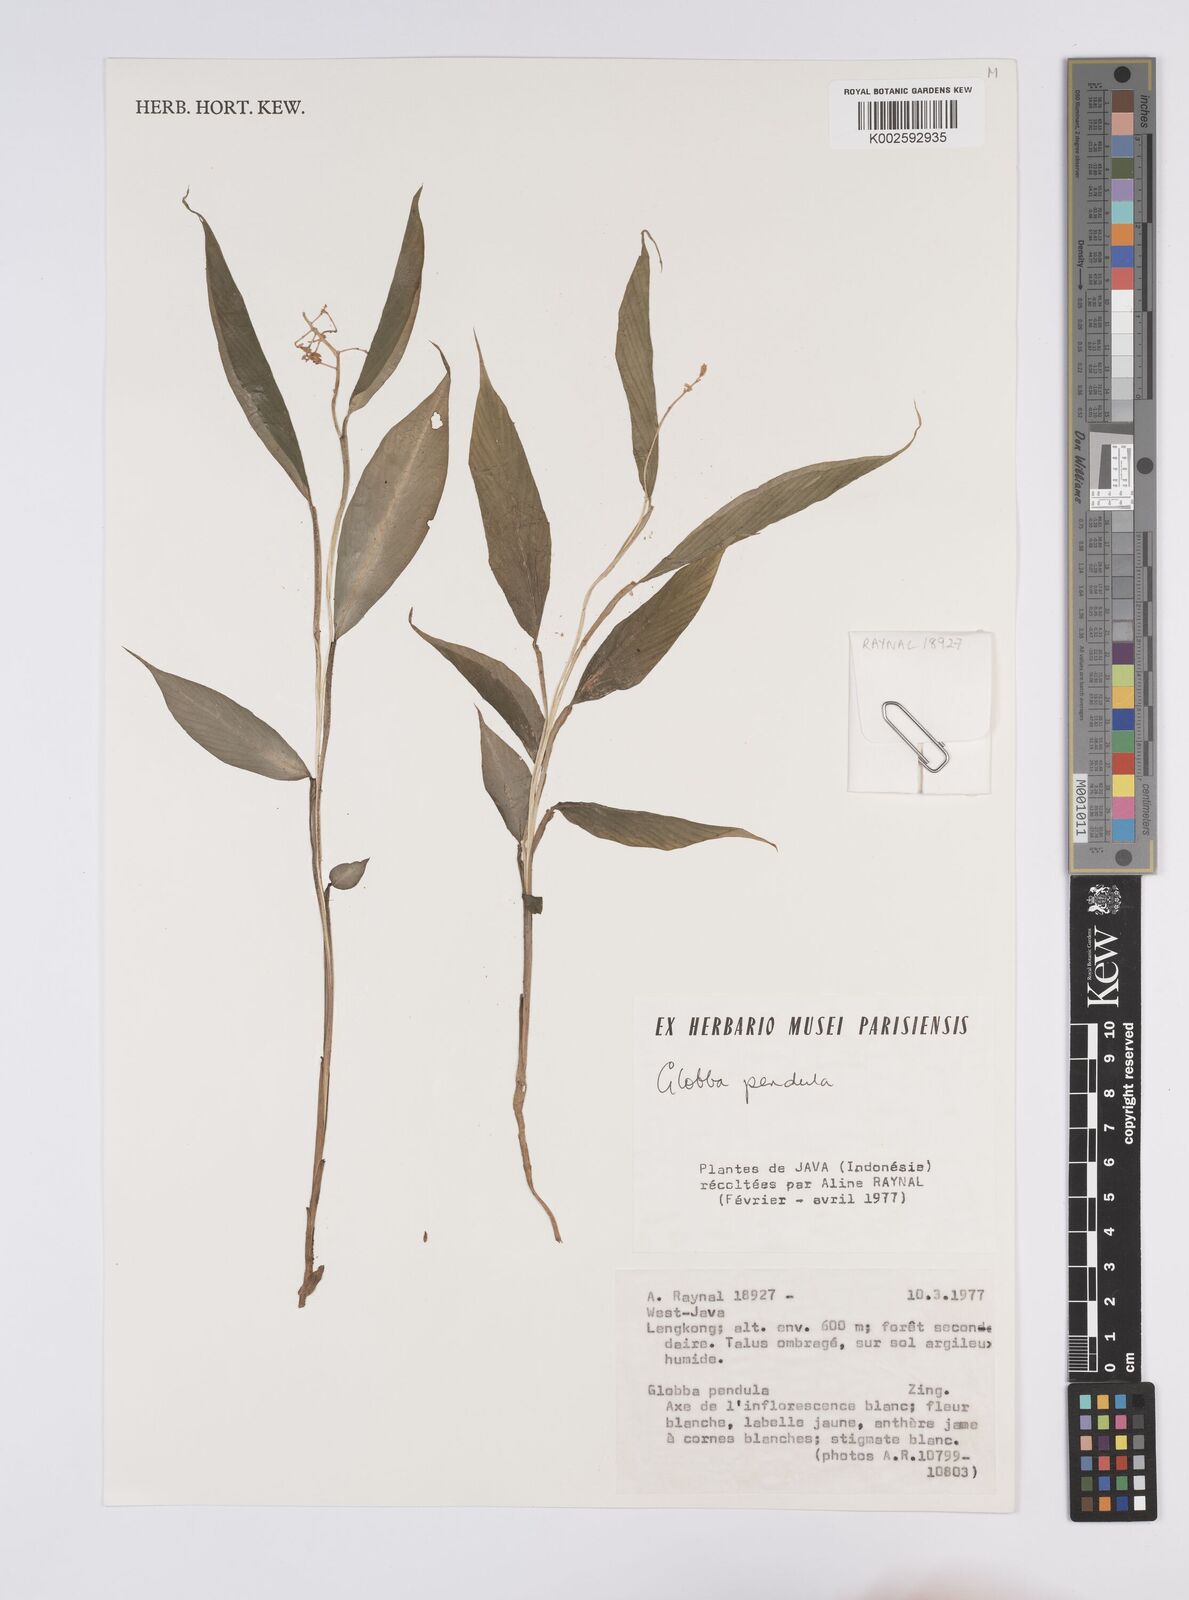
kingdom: Plantae
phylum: Tracheophyta
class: Liliopsida
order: Zingiberales
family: Zingiberaceae
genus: Globba
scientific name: Globba pendula
